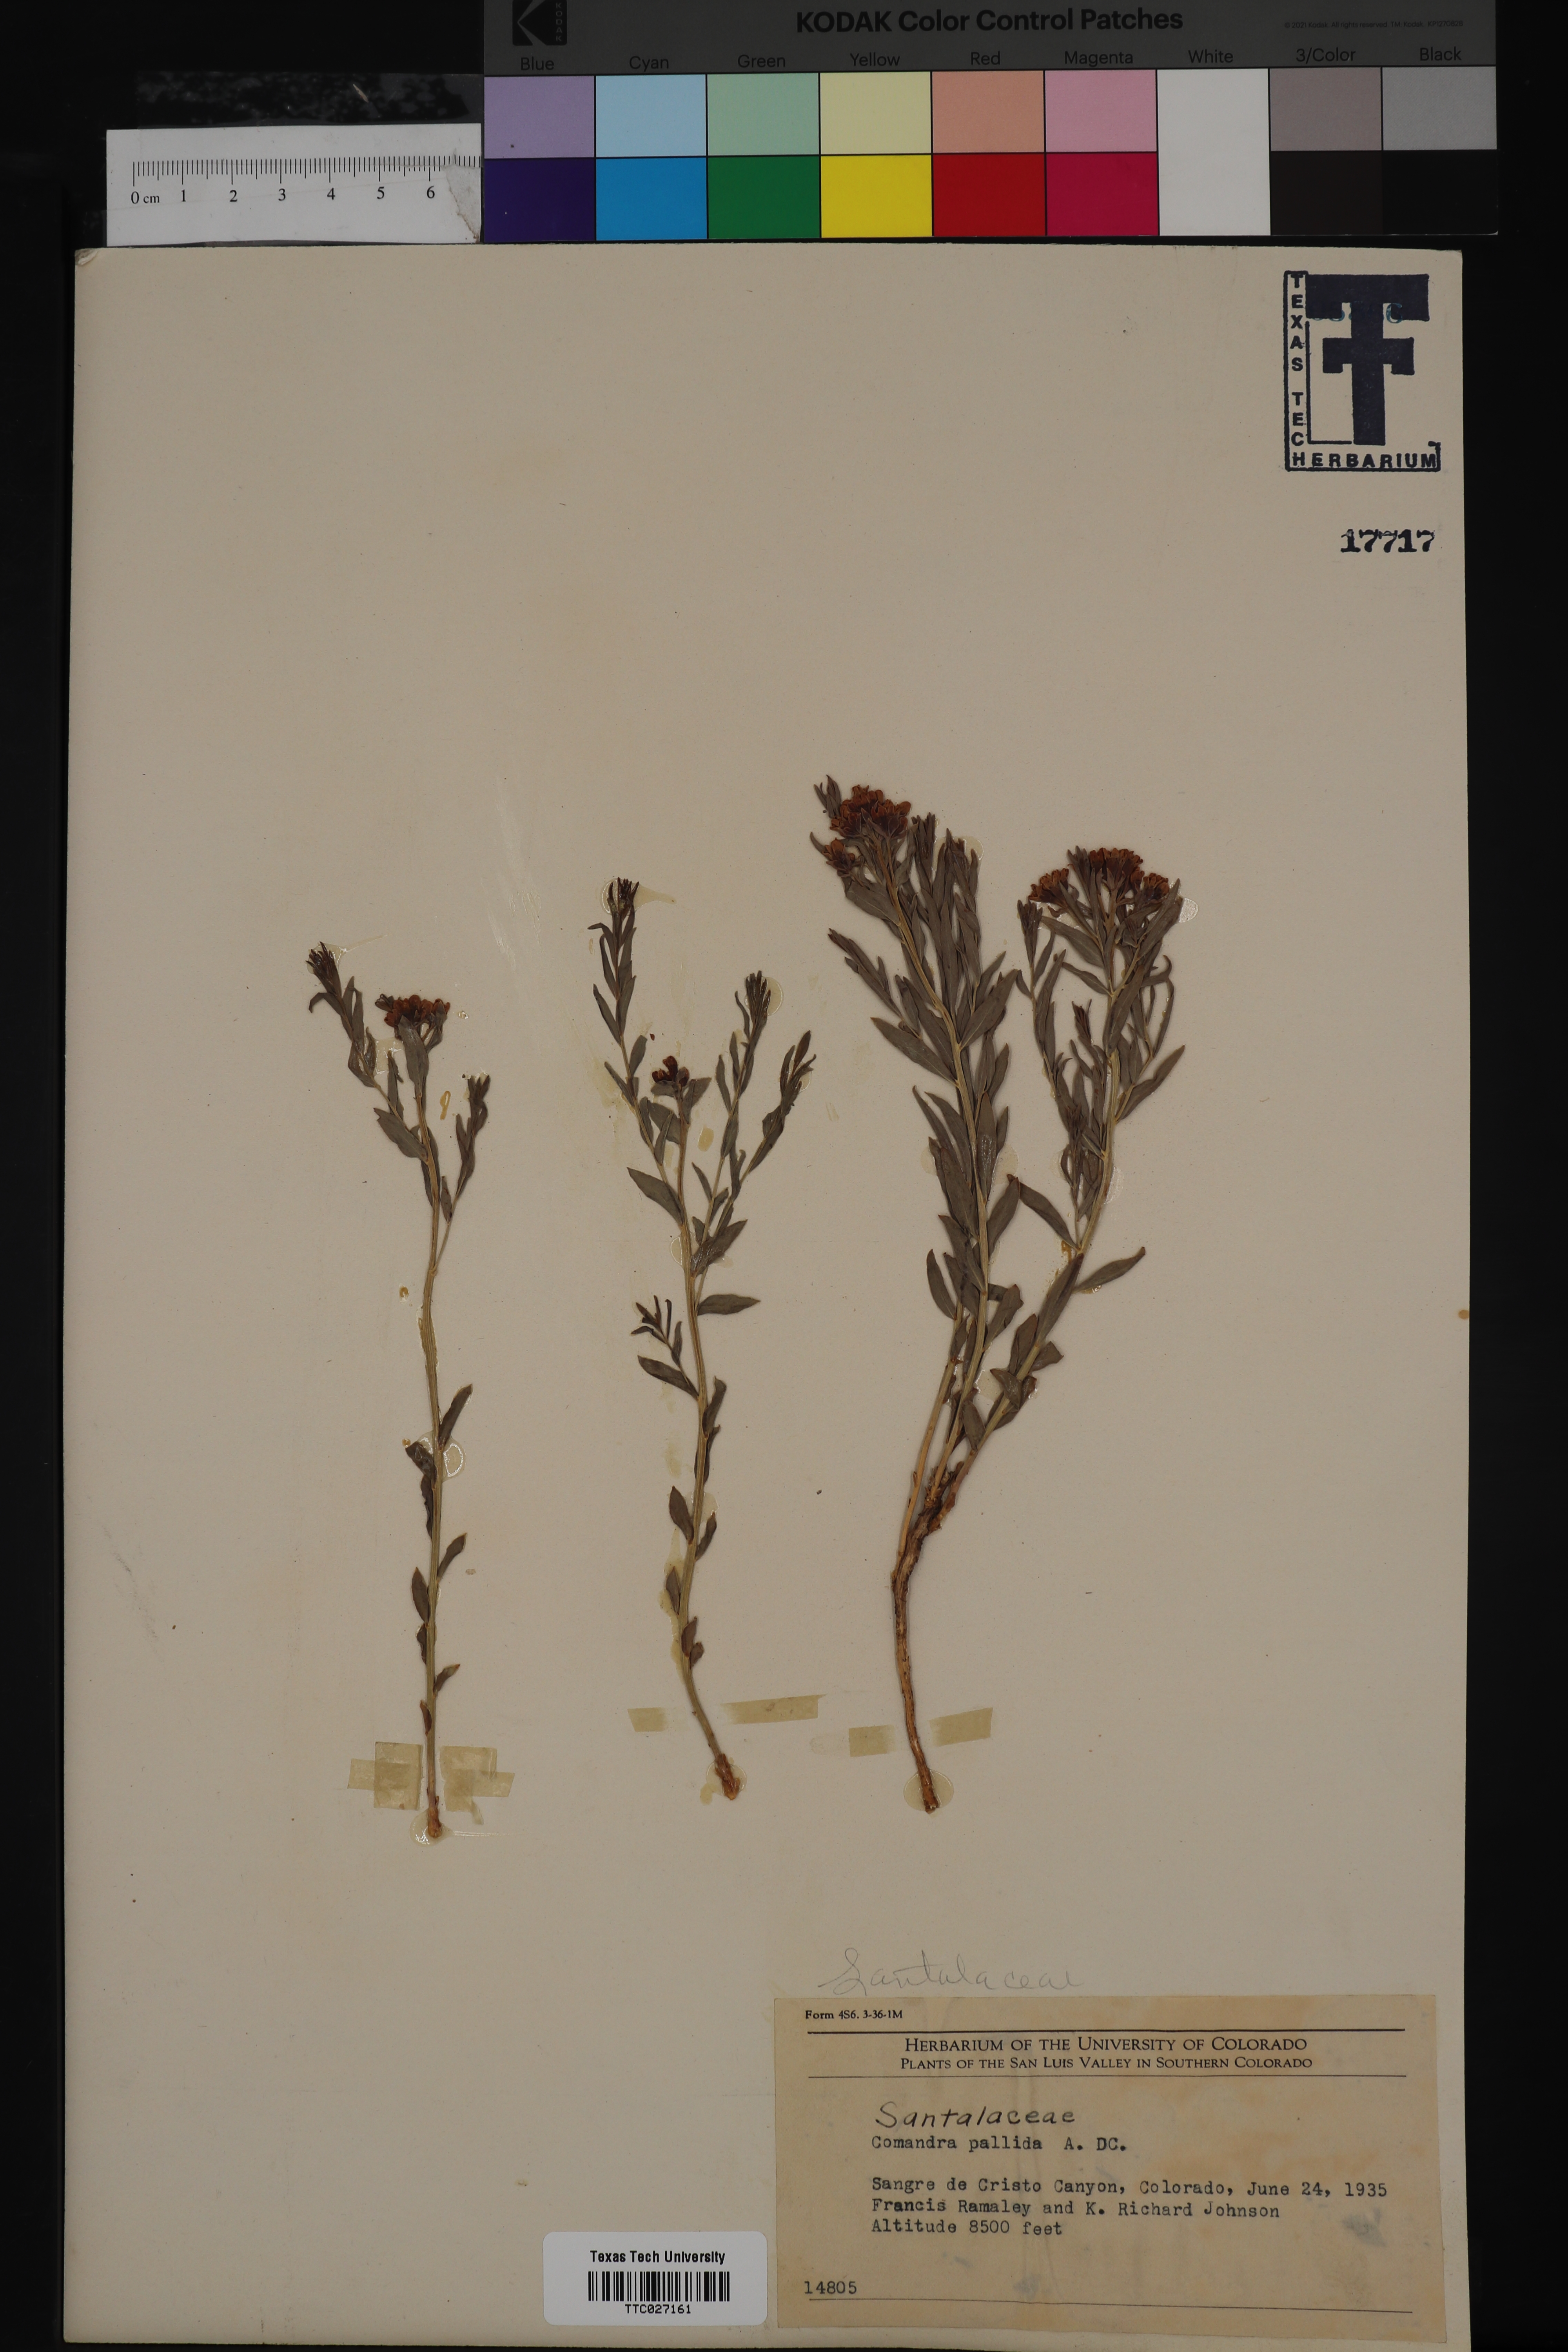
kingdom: Plantae
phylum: Tracheophyta
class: Magnoliopsida
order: Santalales
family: Comandraceae
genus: Comandra
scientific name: Comandra umbellata
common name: Bastard toadflax
